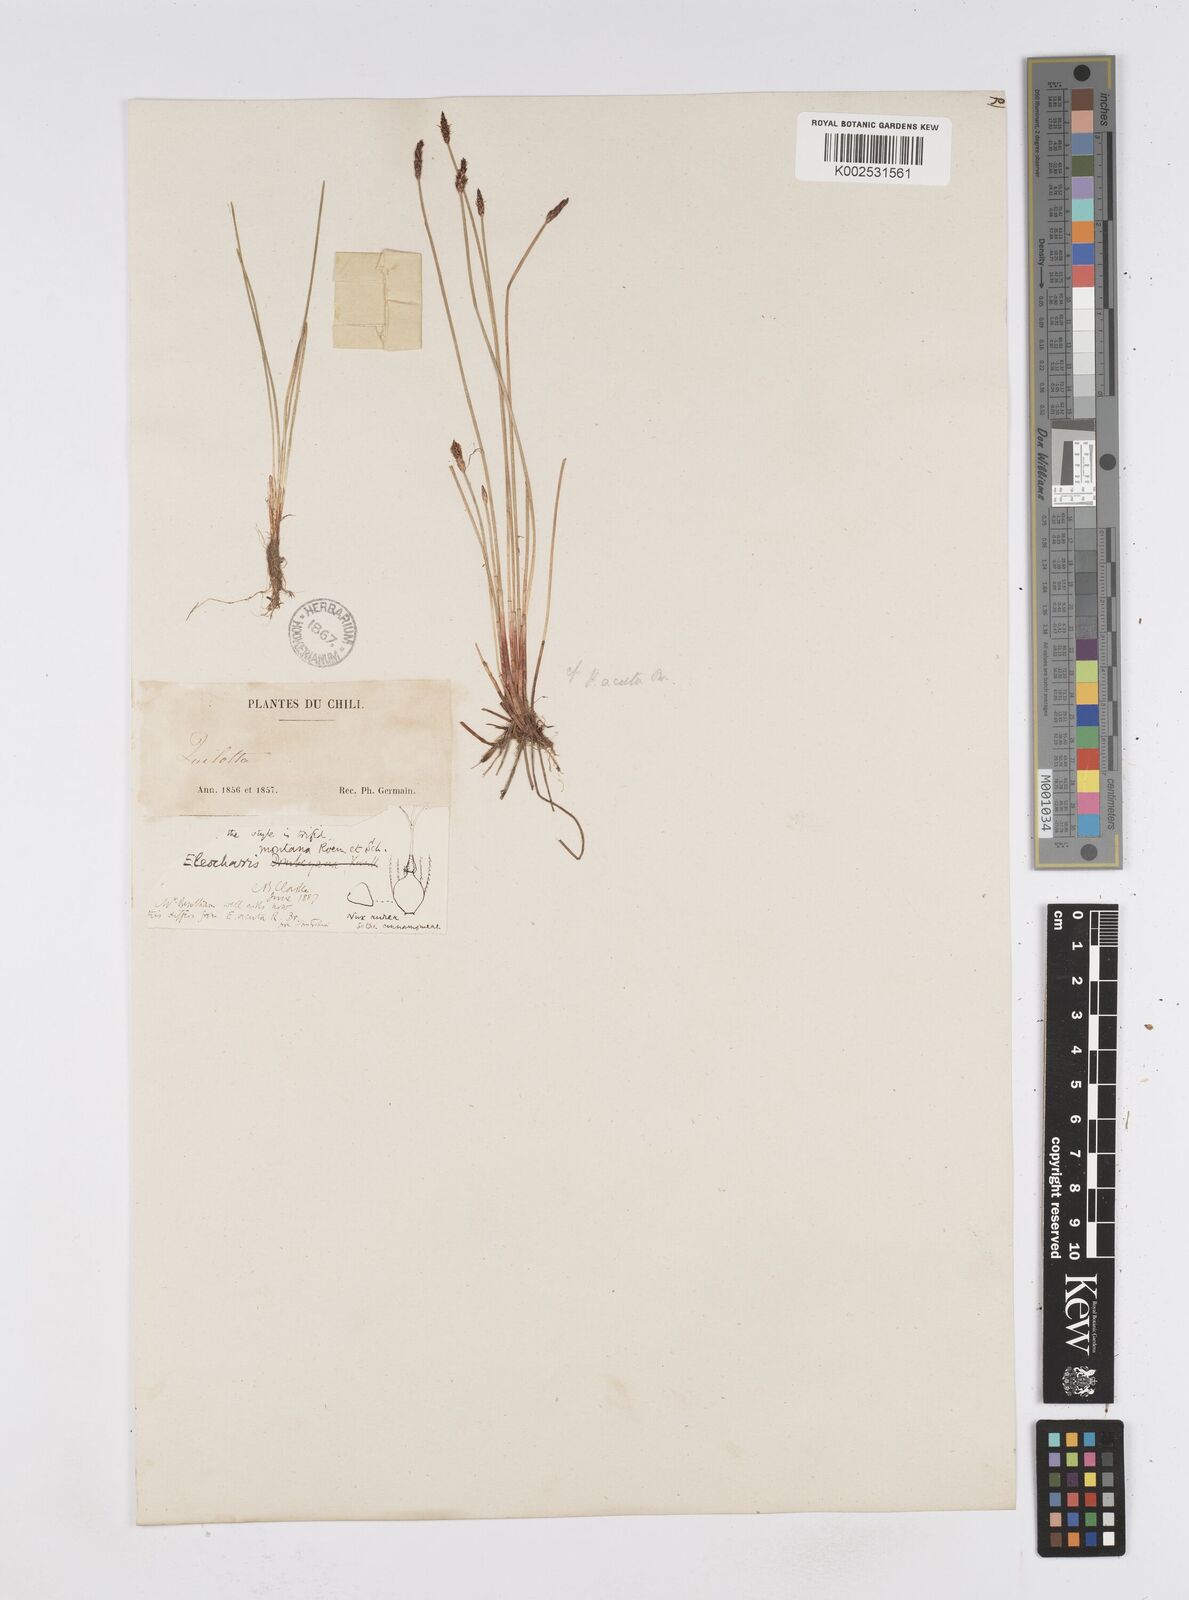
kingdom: Plantae
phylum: Tracheophyta
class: Liliopsida
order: Poales
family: Cyperaceae
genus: Eleocharis
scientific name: Eleocharis montana
